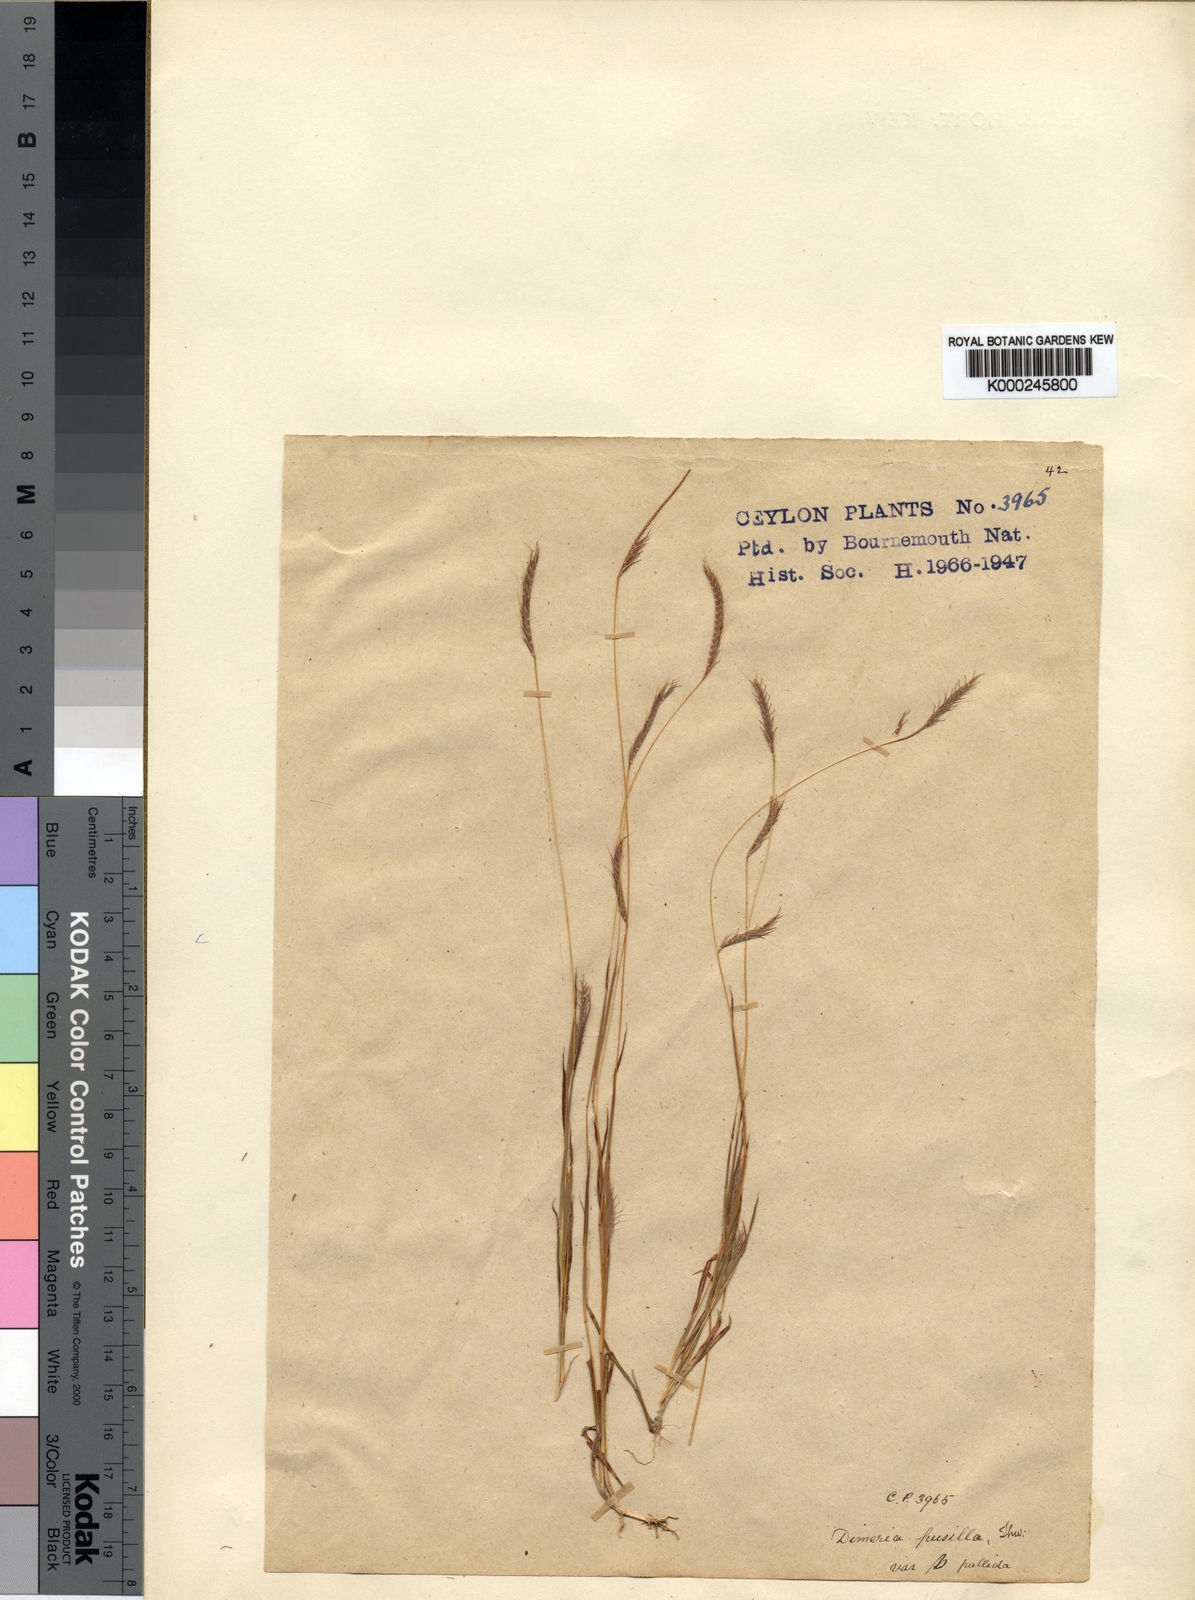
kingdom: Plantae
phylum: Tracheophyta
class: Liliopsida
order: Poales
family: Poaceae
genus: Dimeria
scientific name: Dimeria thwaitesii
